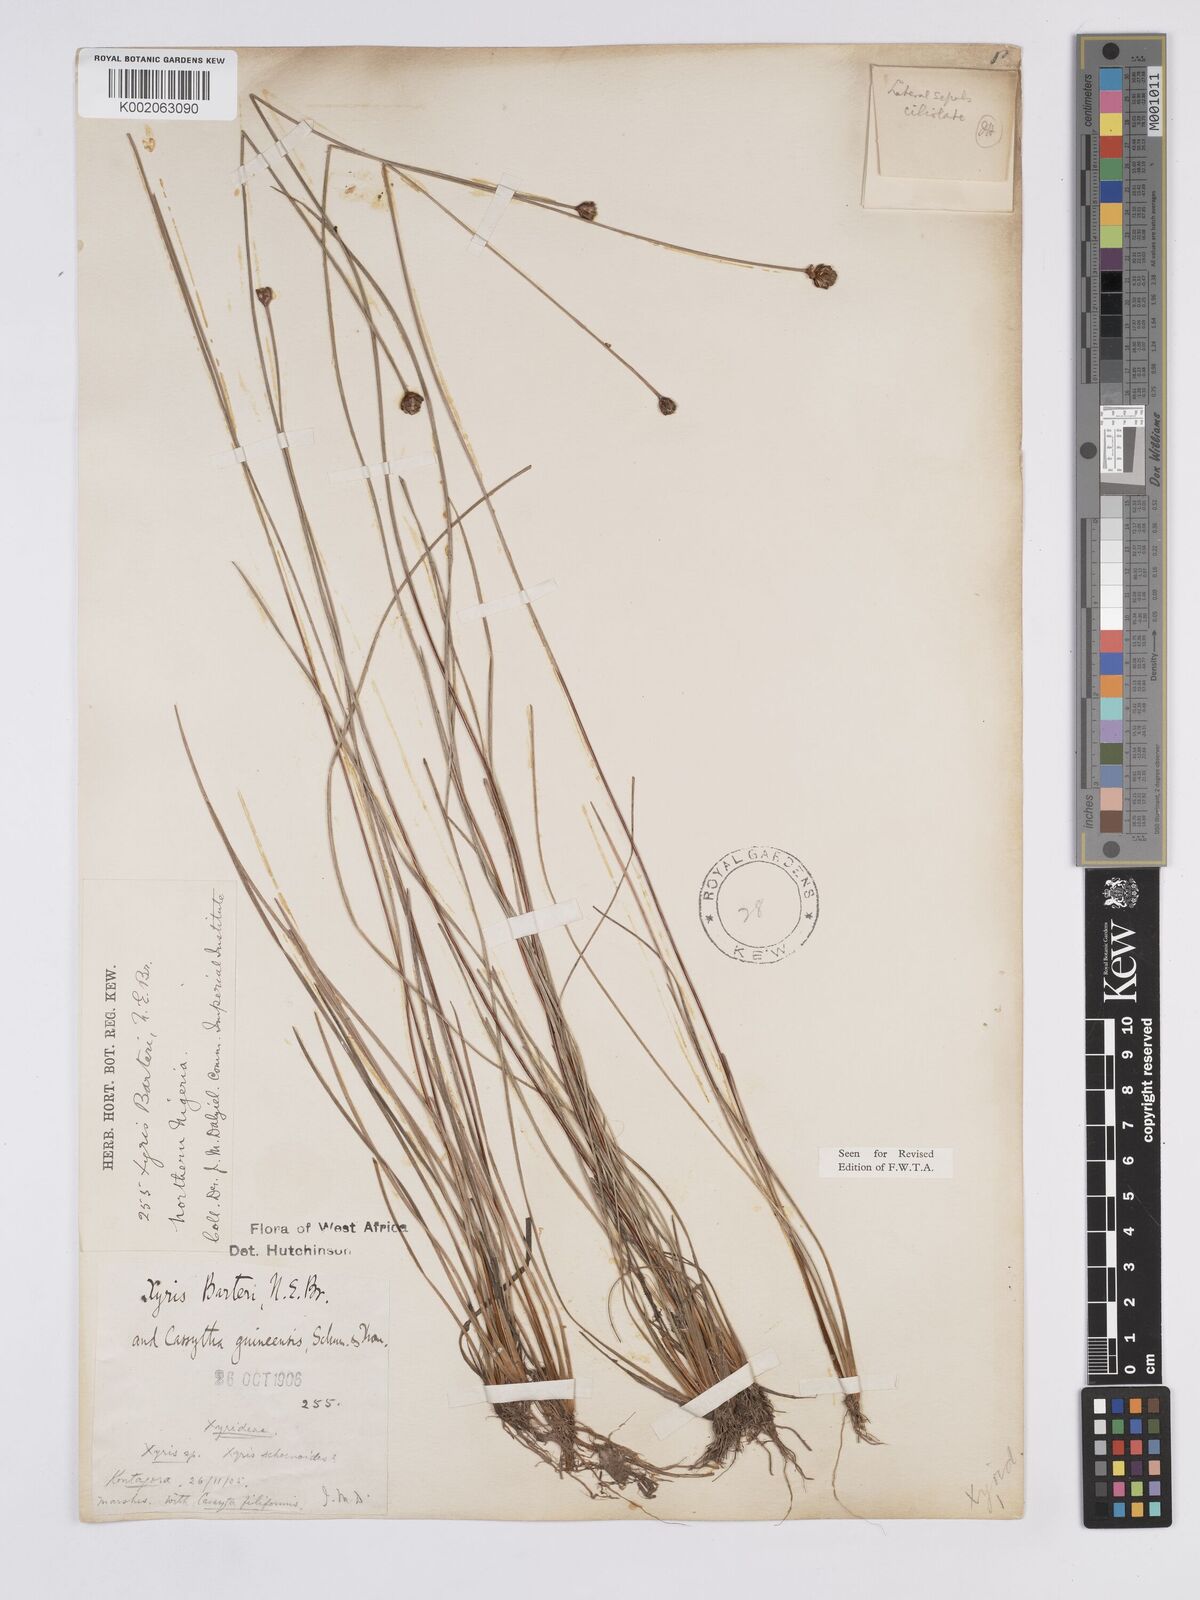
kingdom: Plantae
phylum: Tracheophyta
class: Liliopsida
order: Poales
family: Xyridaceae
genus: Xyris
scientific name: Xyris barteri
